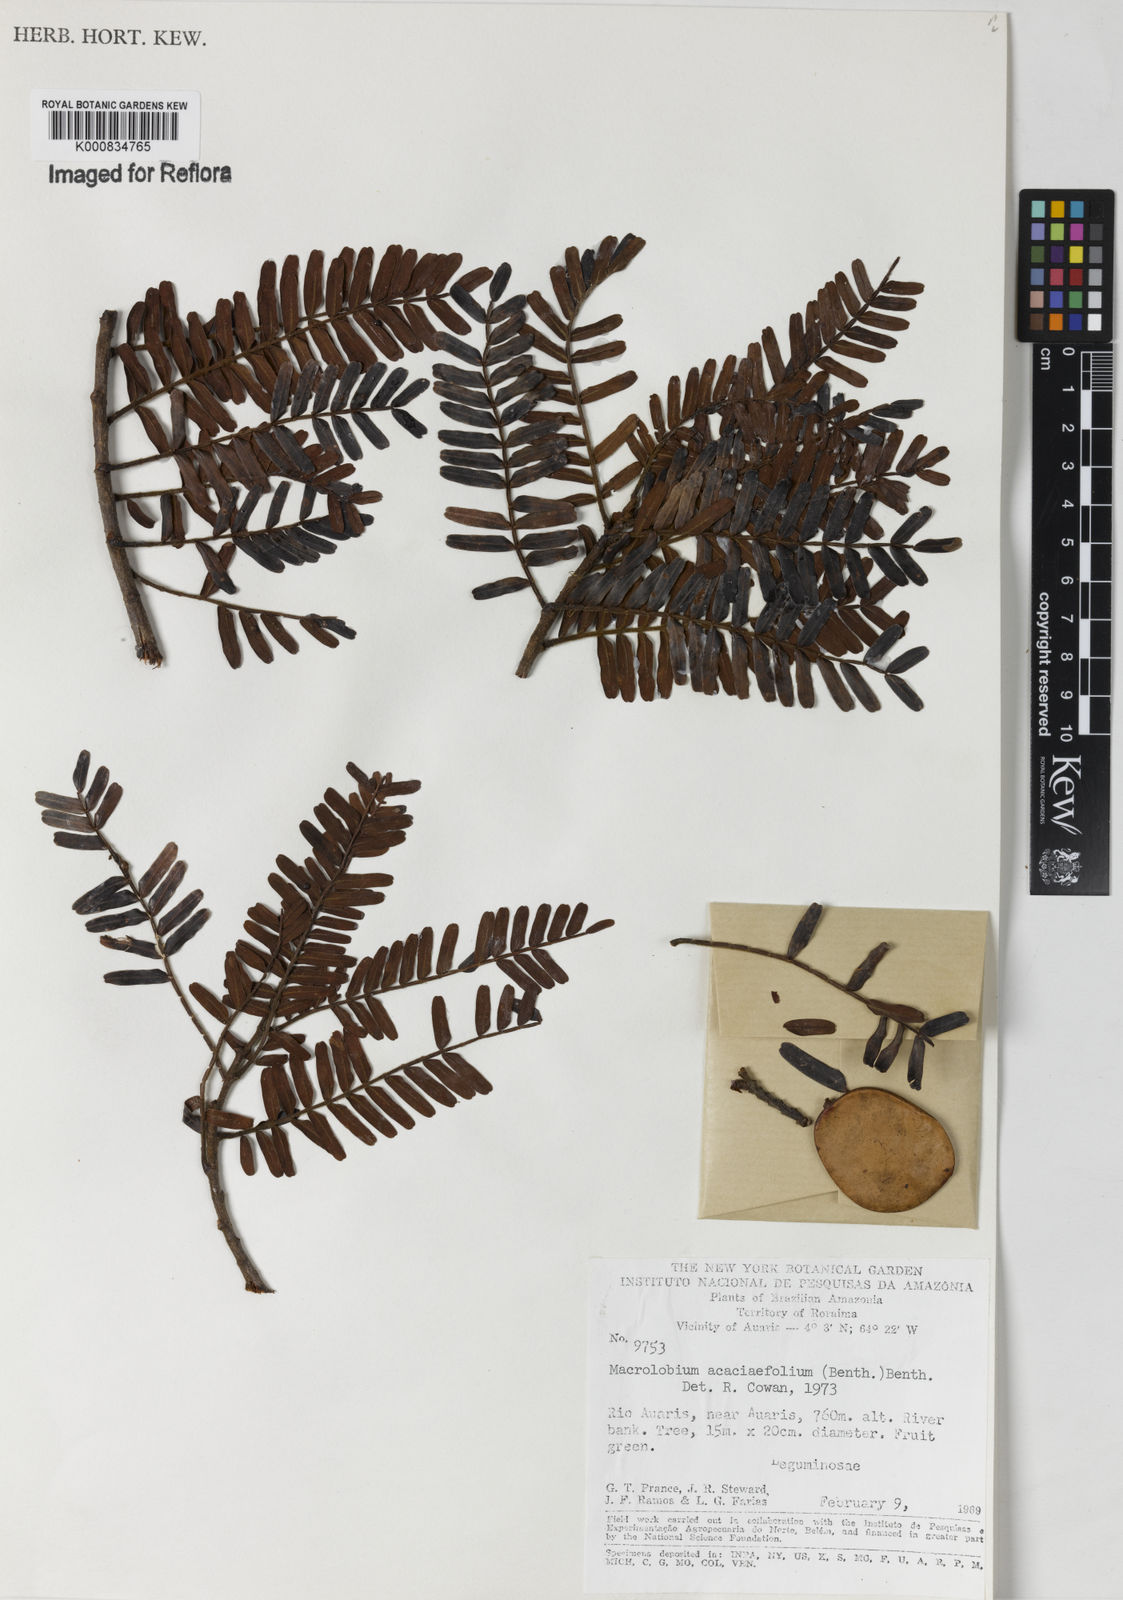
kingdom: Plantae
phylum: Tracheophyta
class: Magnoliopsida
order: Fabales
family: Fabaceae
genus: Macrolobium
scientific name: Macrolobium acaciifolium
